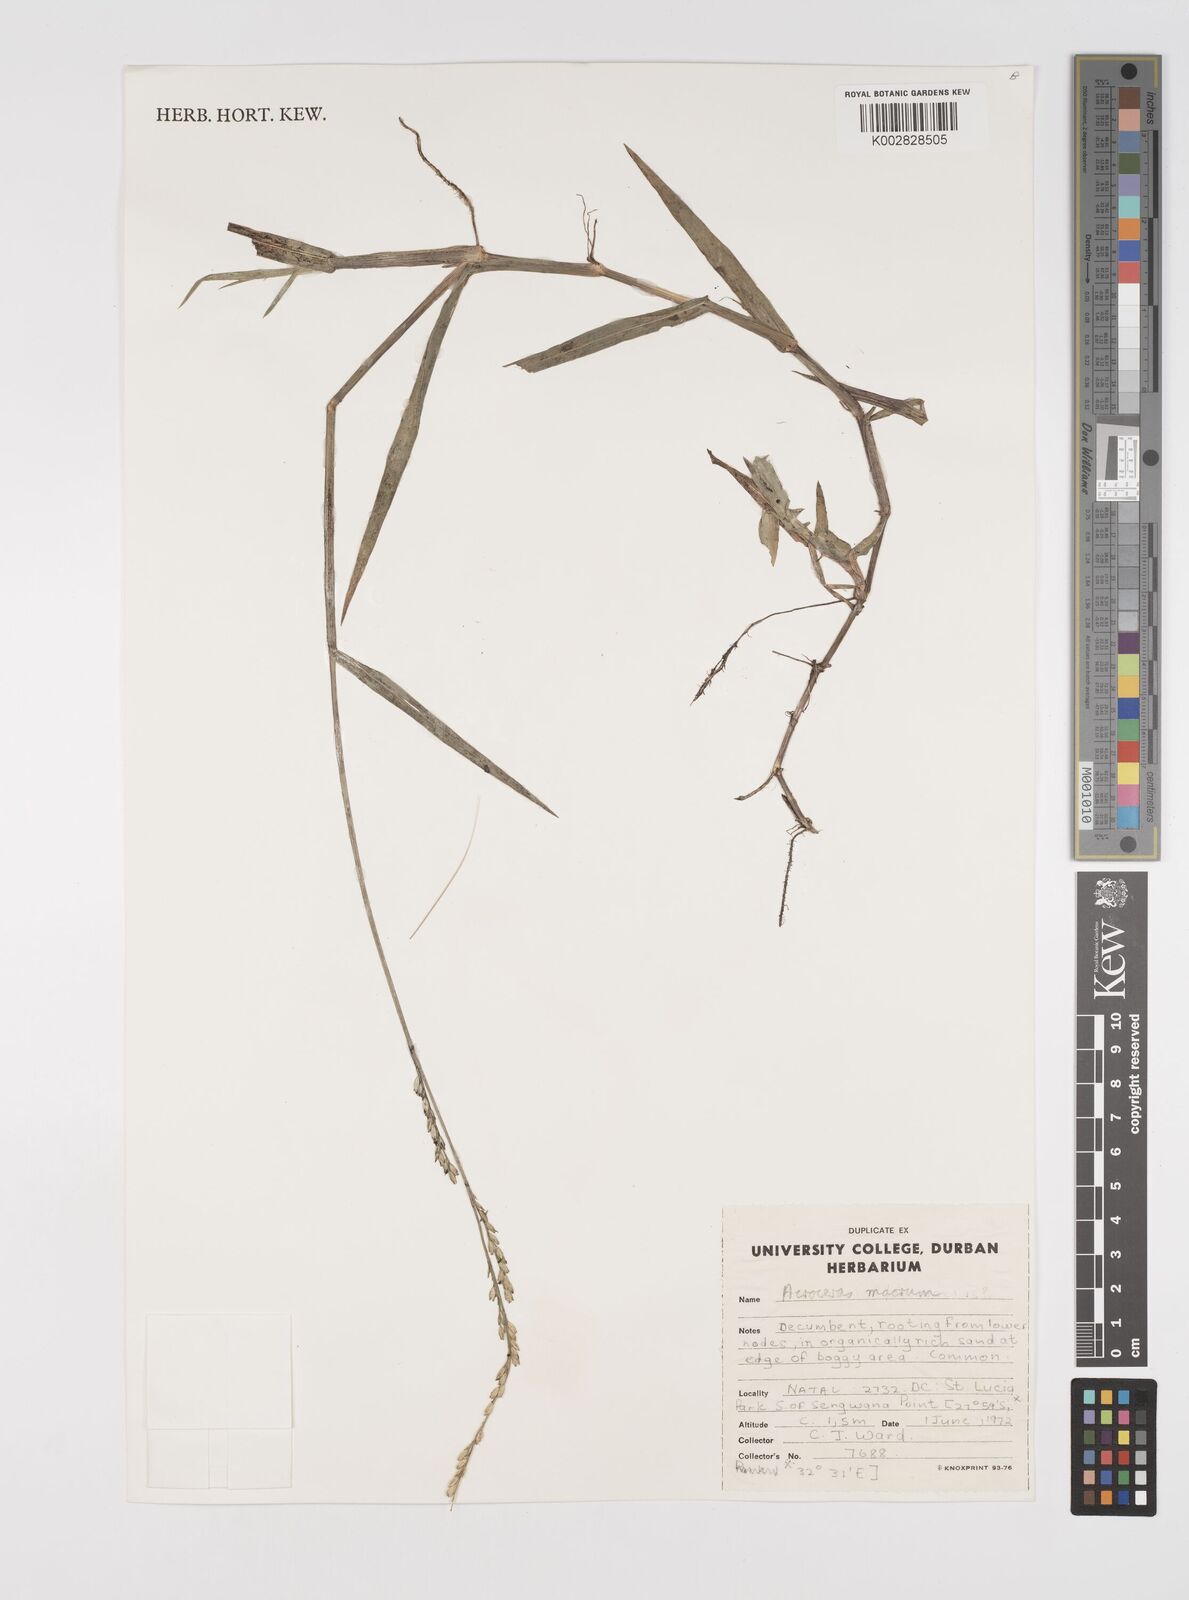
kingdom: Plantae
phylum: Tracheophyta
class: Liliopsida
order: Poales
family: Poaceae
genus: Acroceras
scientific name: Acroceras macrum
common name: Nyl grass
